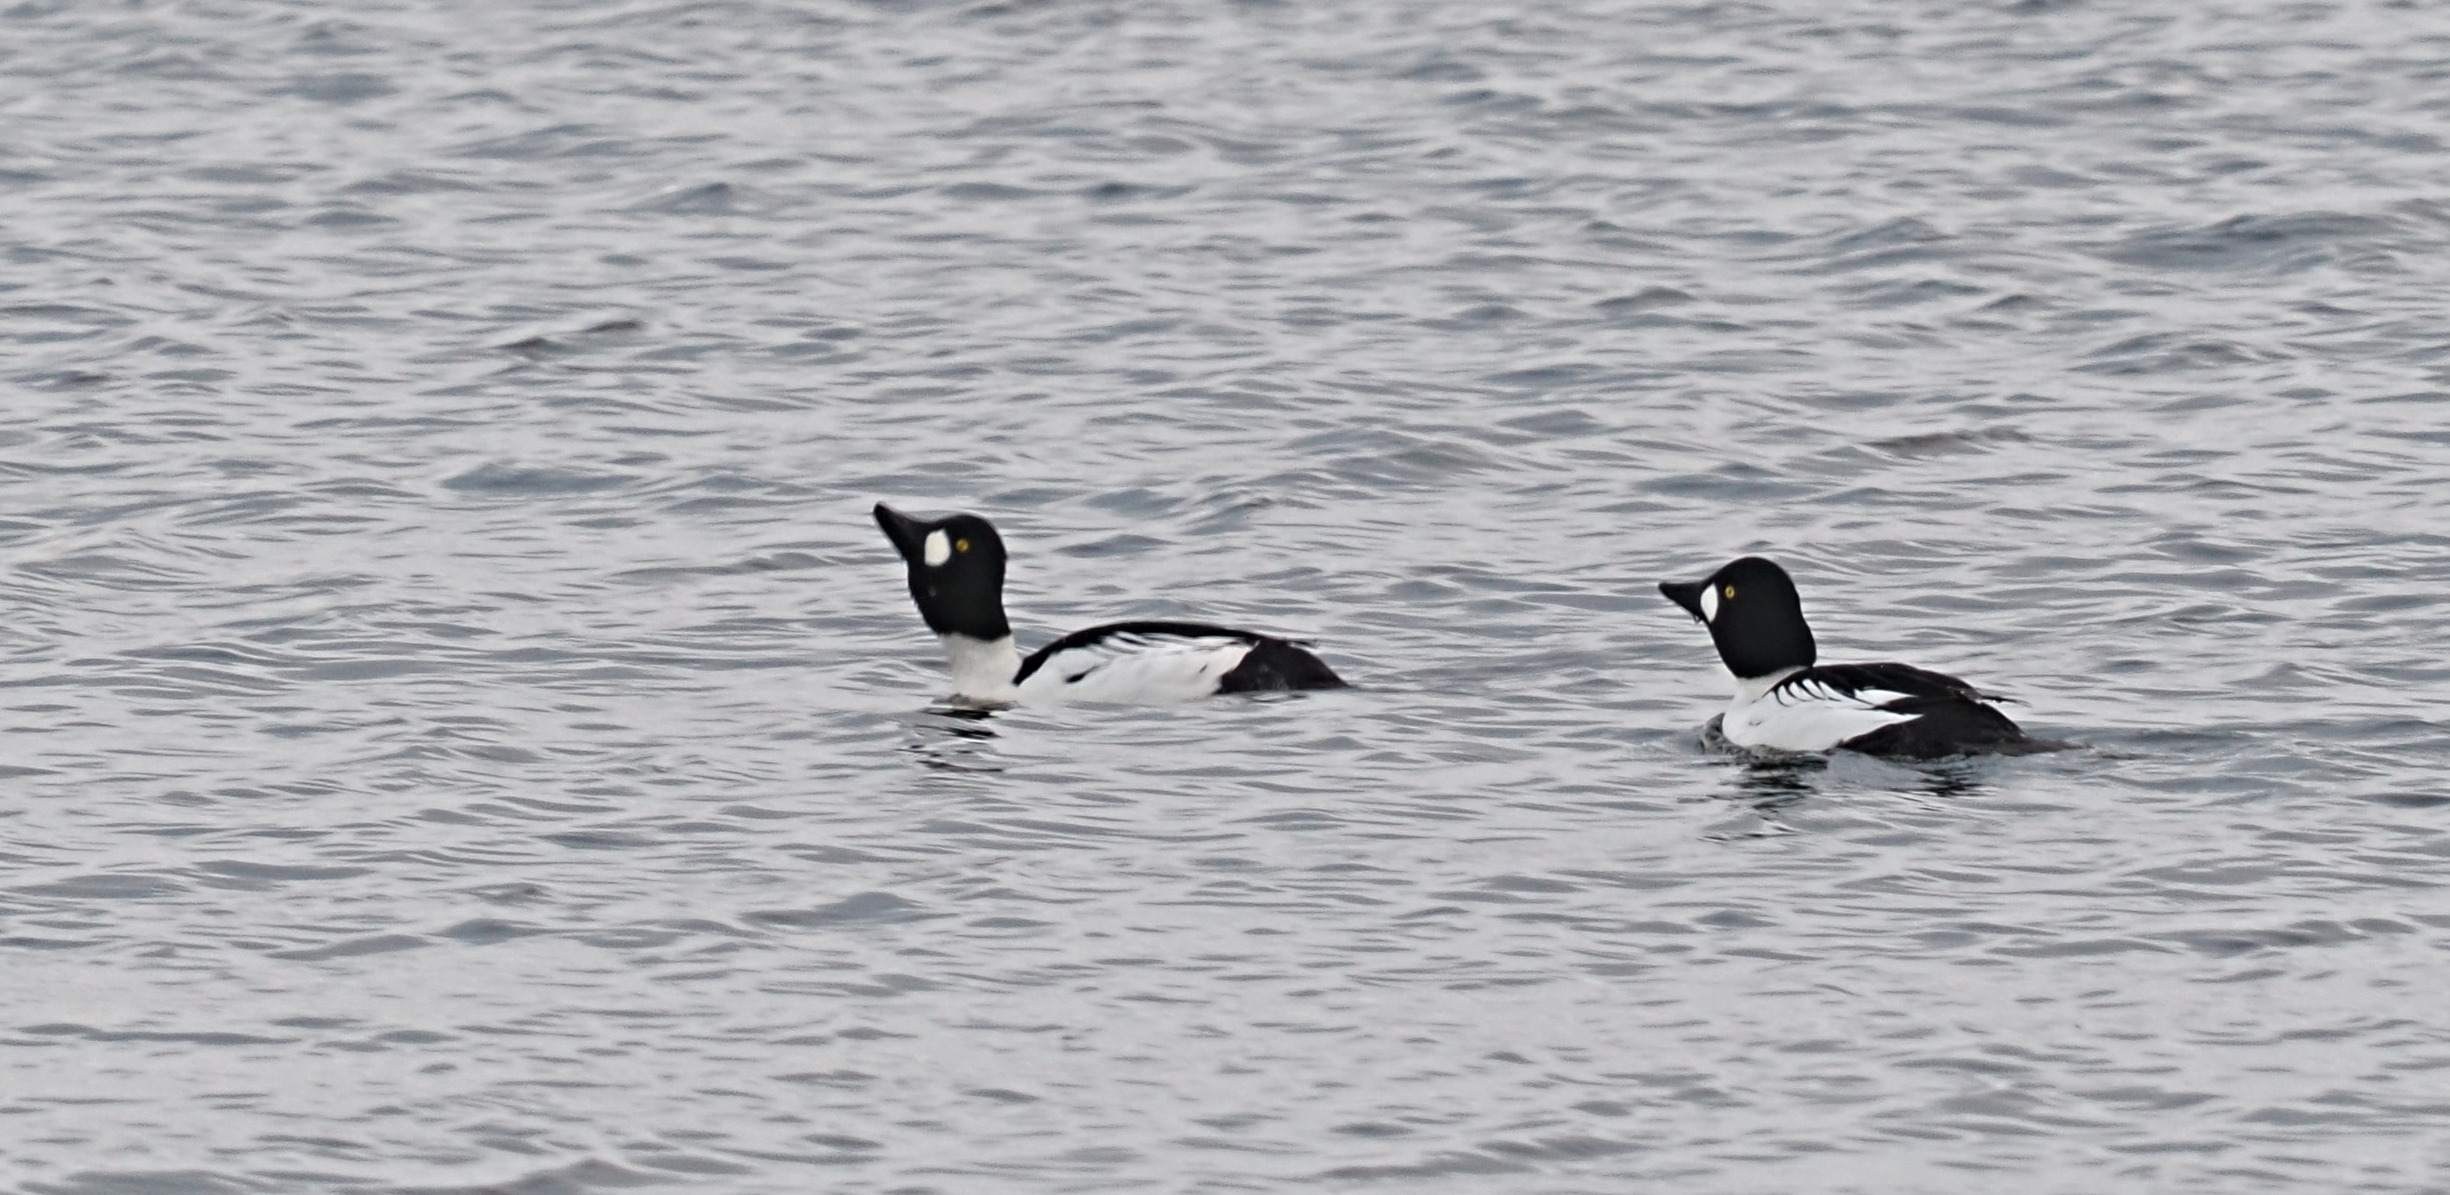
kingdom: Animalia
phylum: Chordata
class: Aves
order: Anseriformes
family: Anatidae
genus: Bucephala
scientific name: Bucephala clangula
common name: Hvinand
